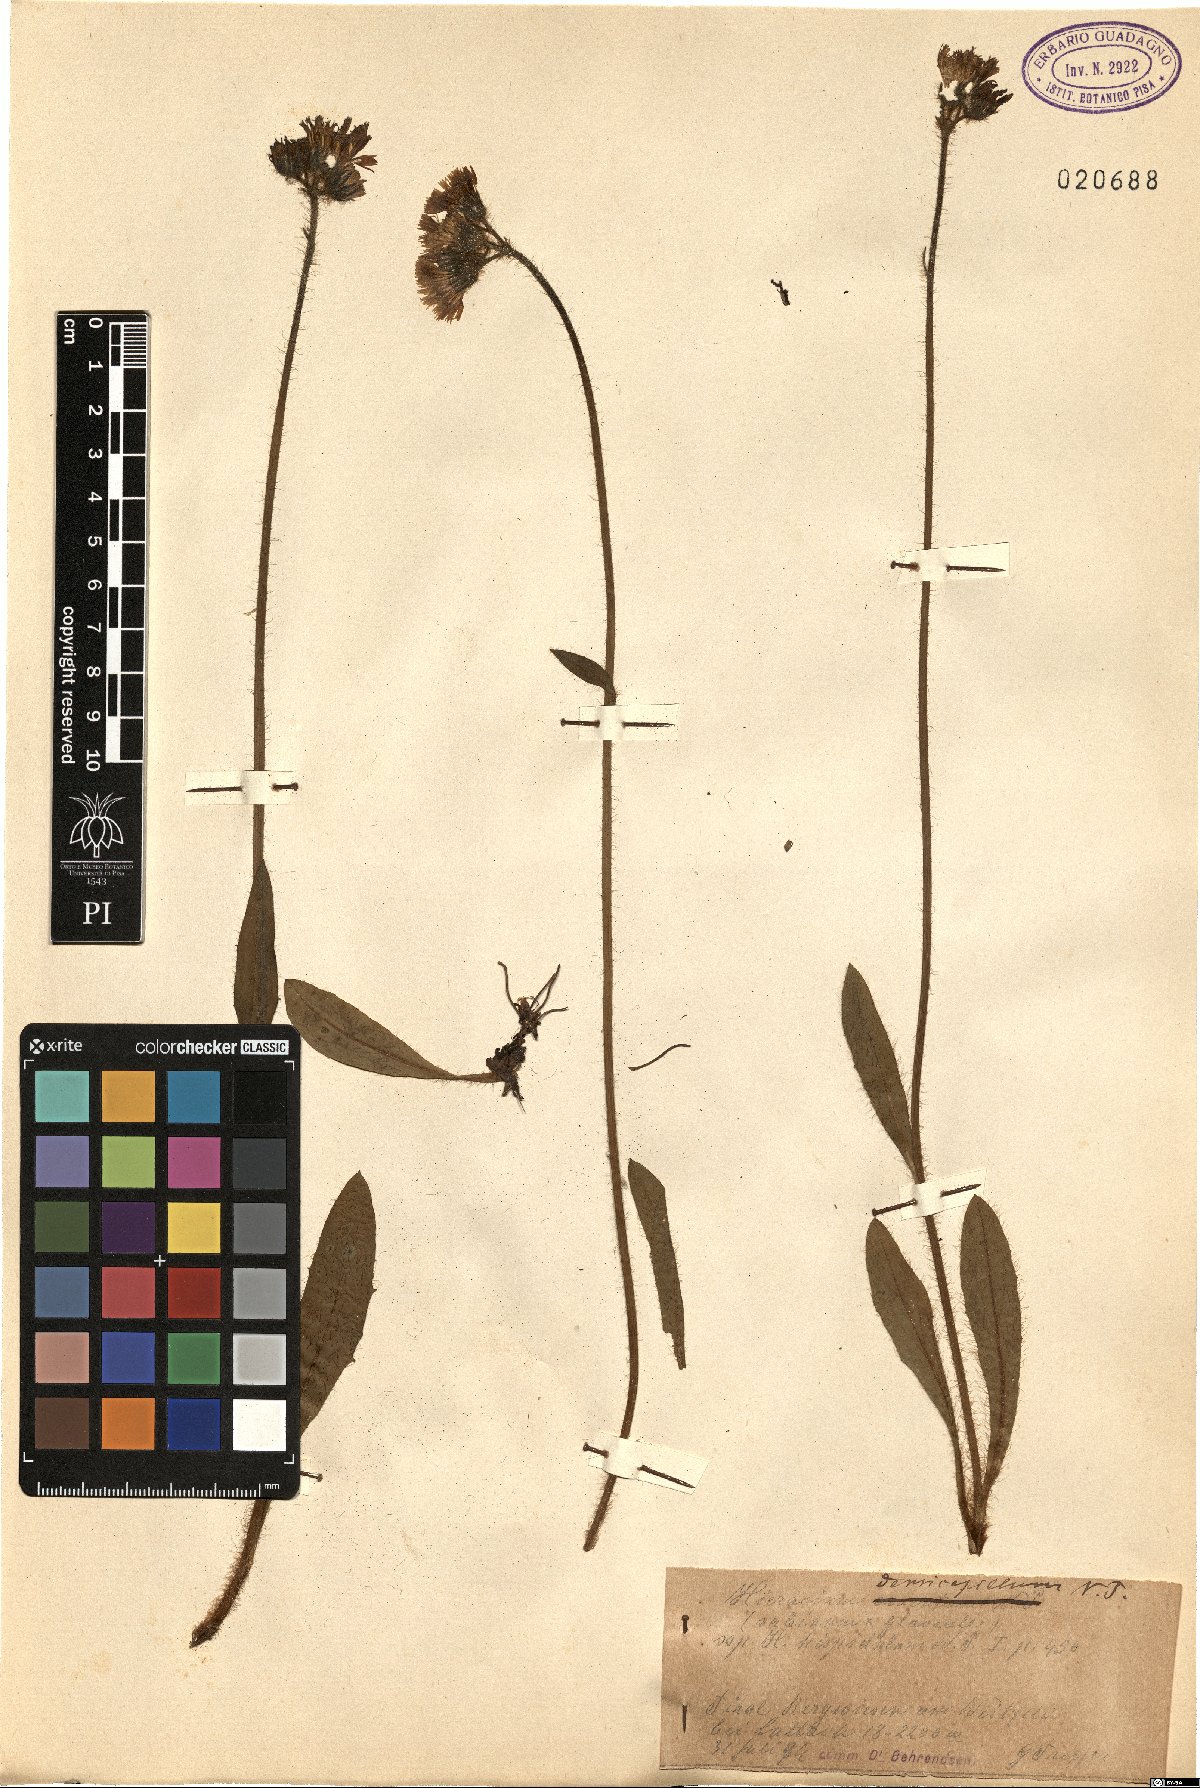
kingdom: Plantae
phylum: Tracheophyta
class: Magnoliopsida
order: Asterales
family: Asteraceae
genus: Pilosella
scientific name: Pilosella laggeri
